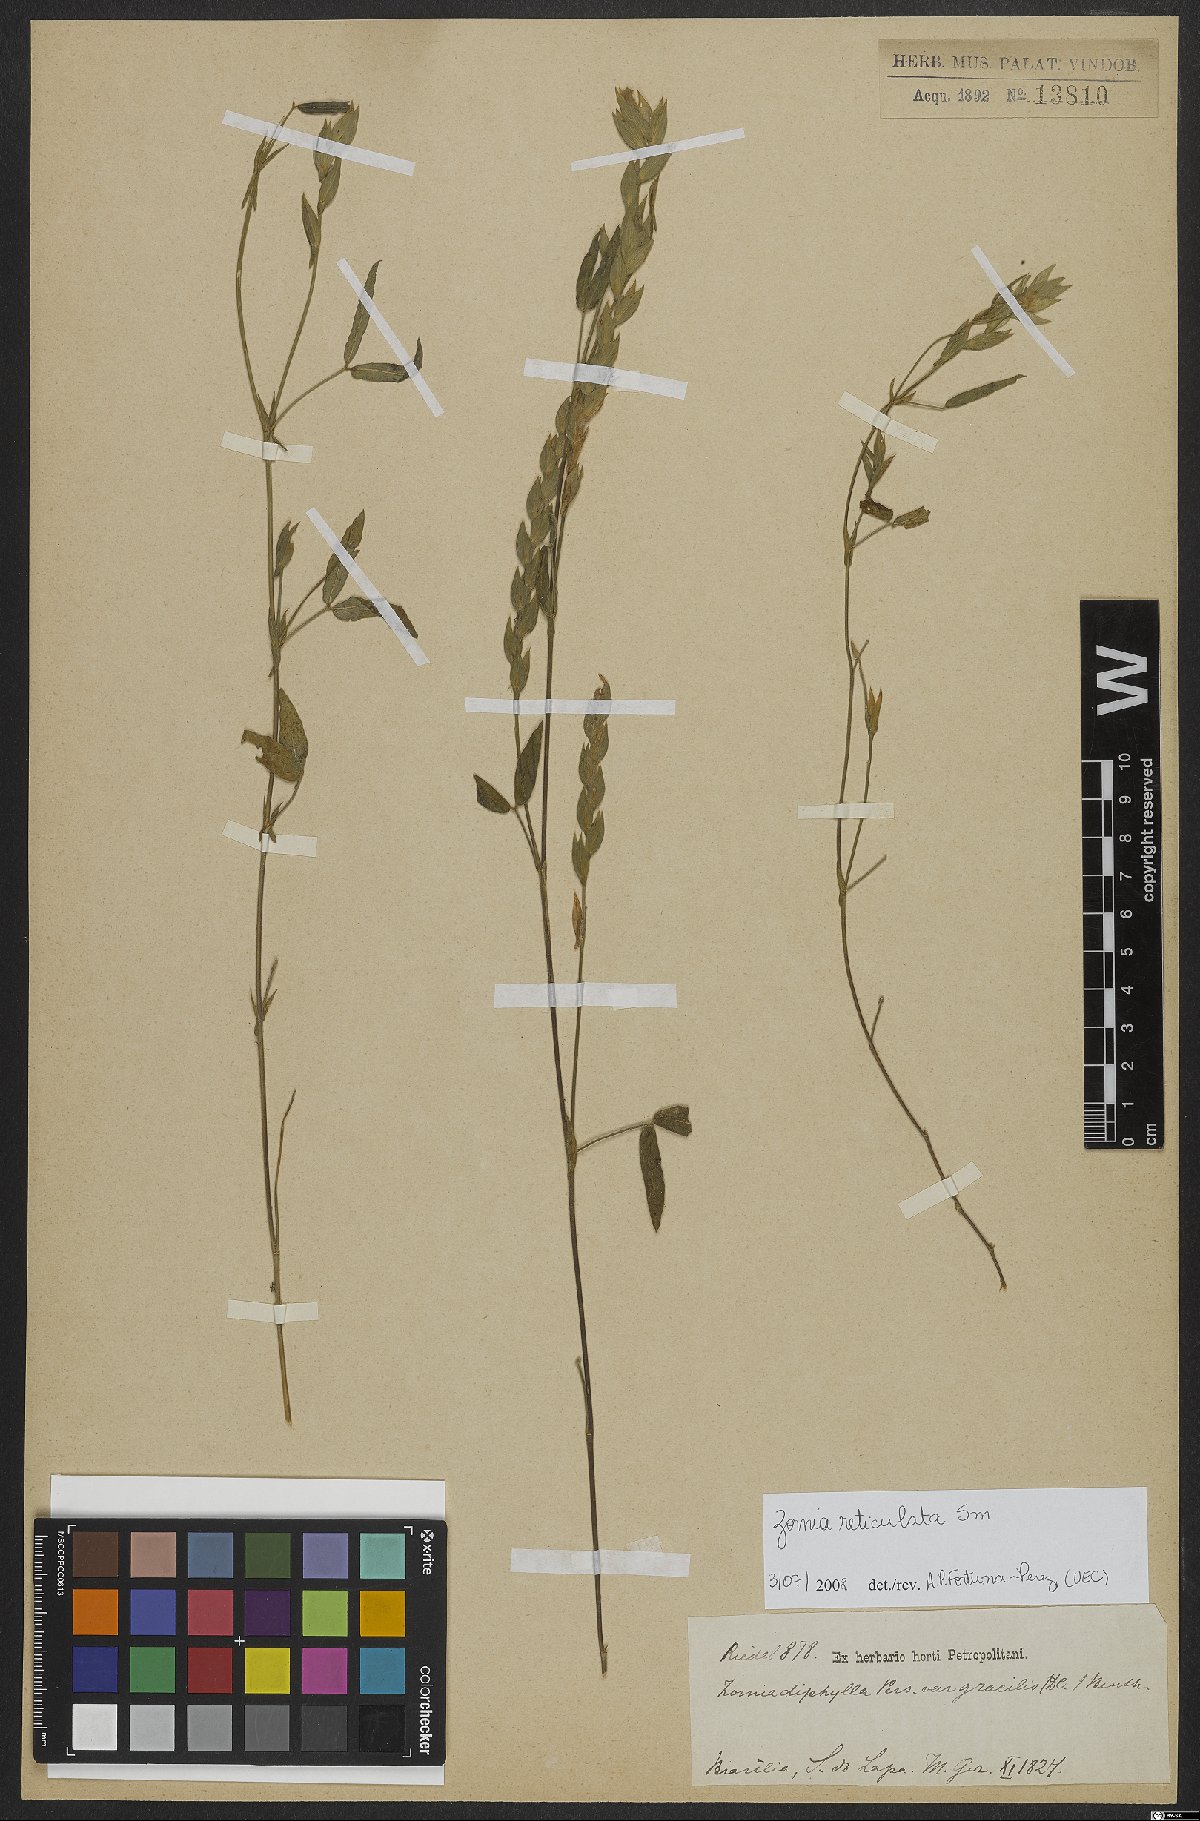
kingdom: Plantae
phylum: Tracheophyta
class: Magnoliopsida
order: Fabales
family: Fabaceae
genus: Zornia
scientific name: Zornia reticulata
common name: Reticulate viperina
